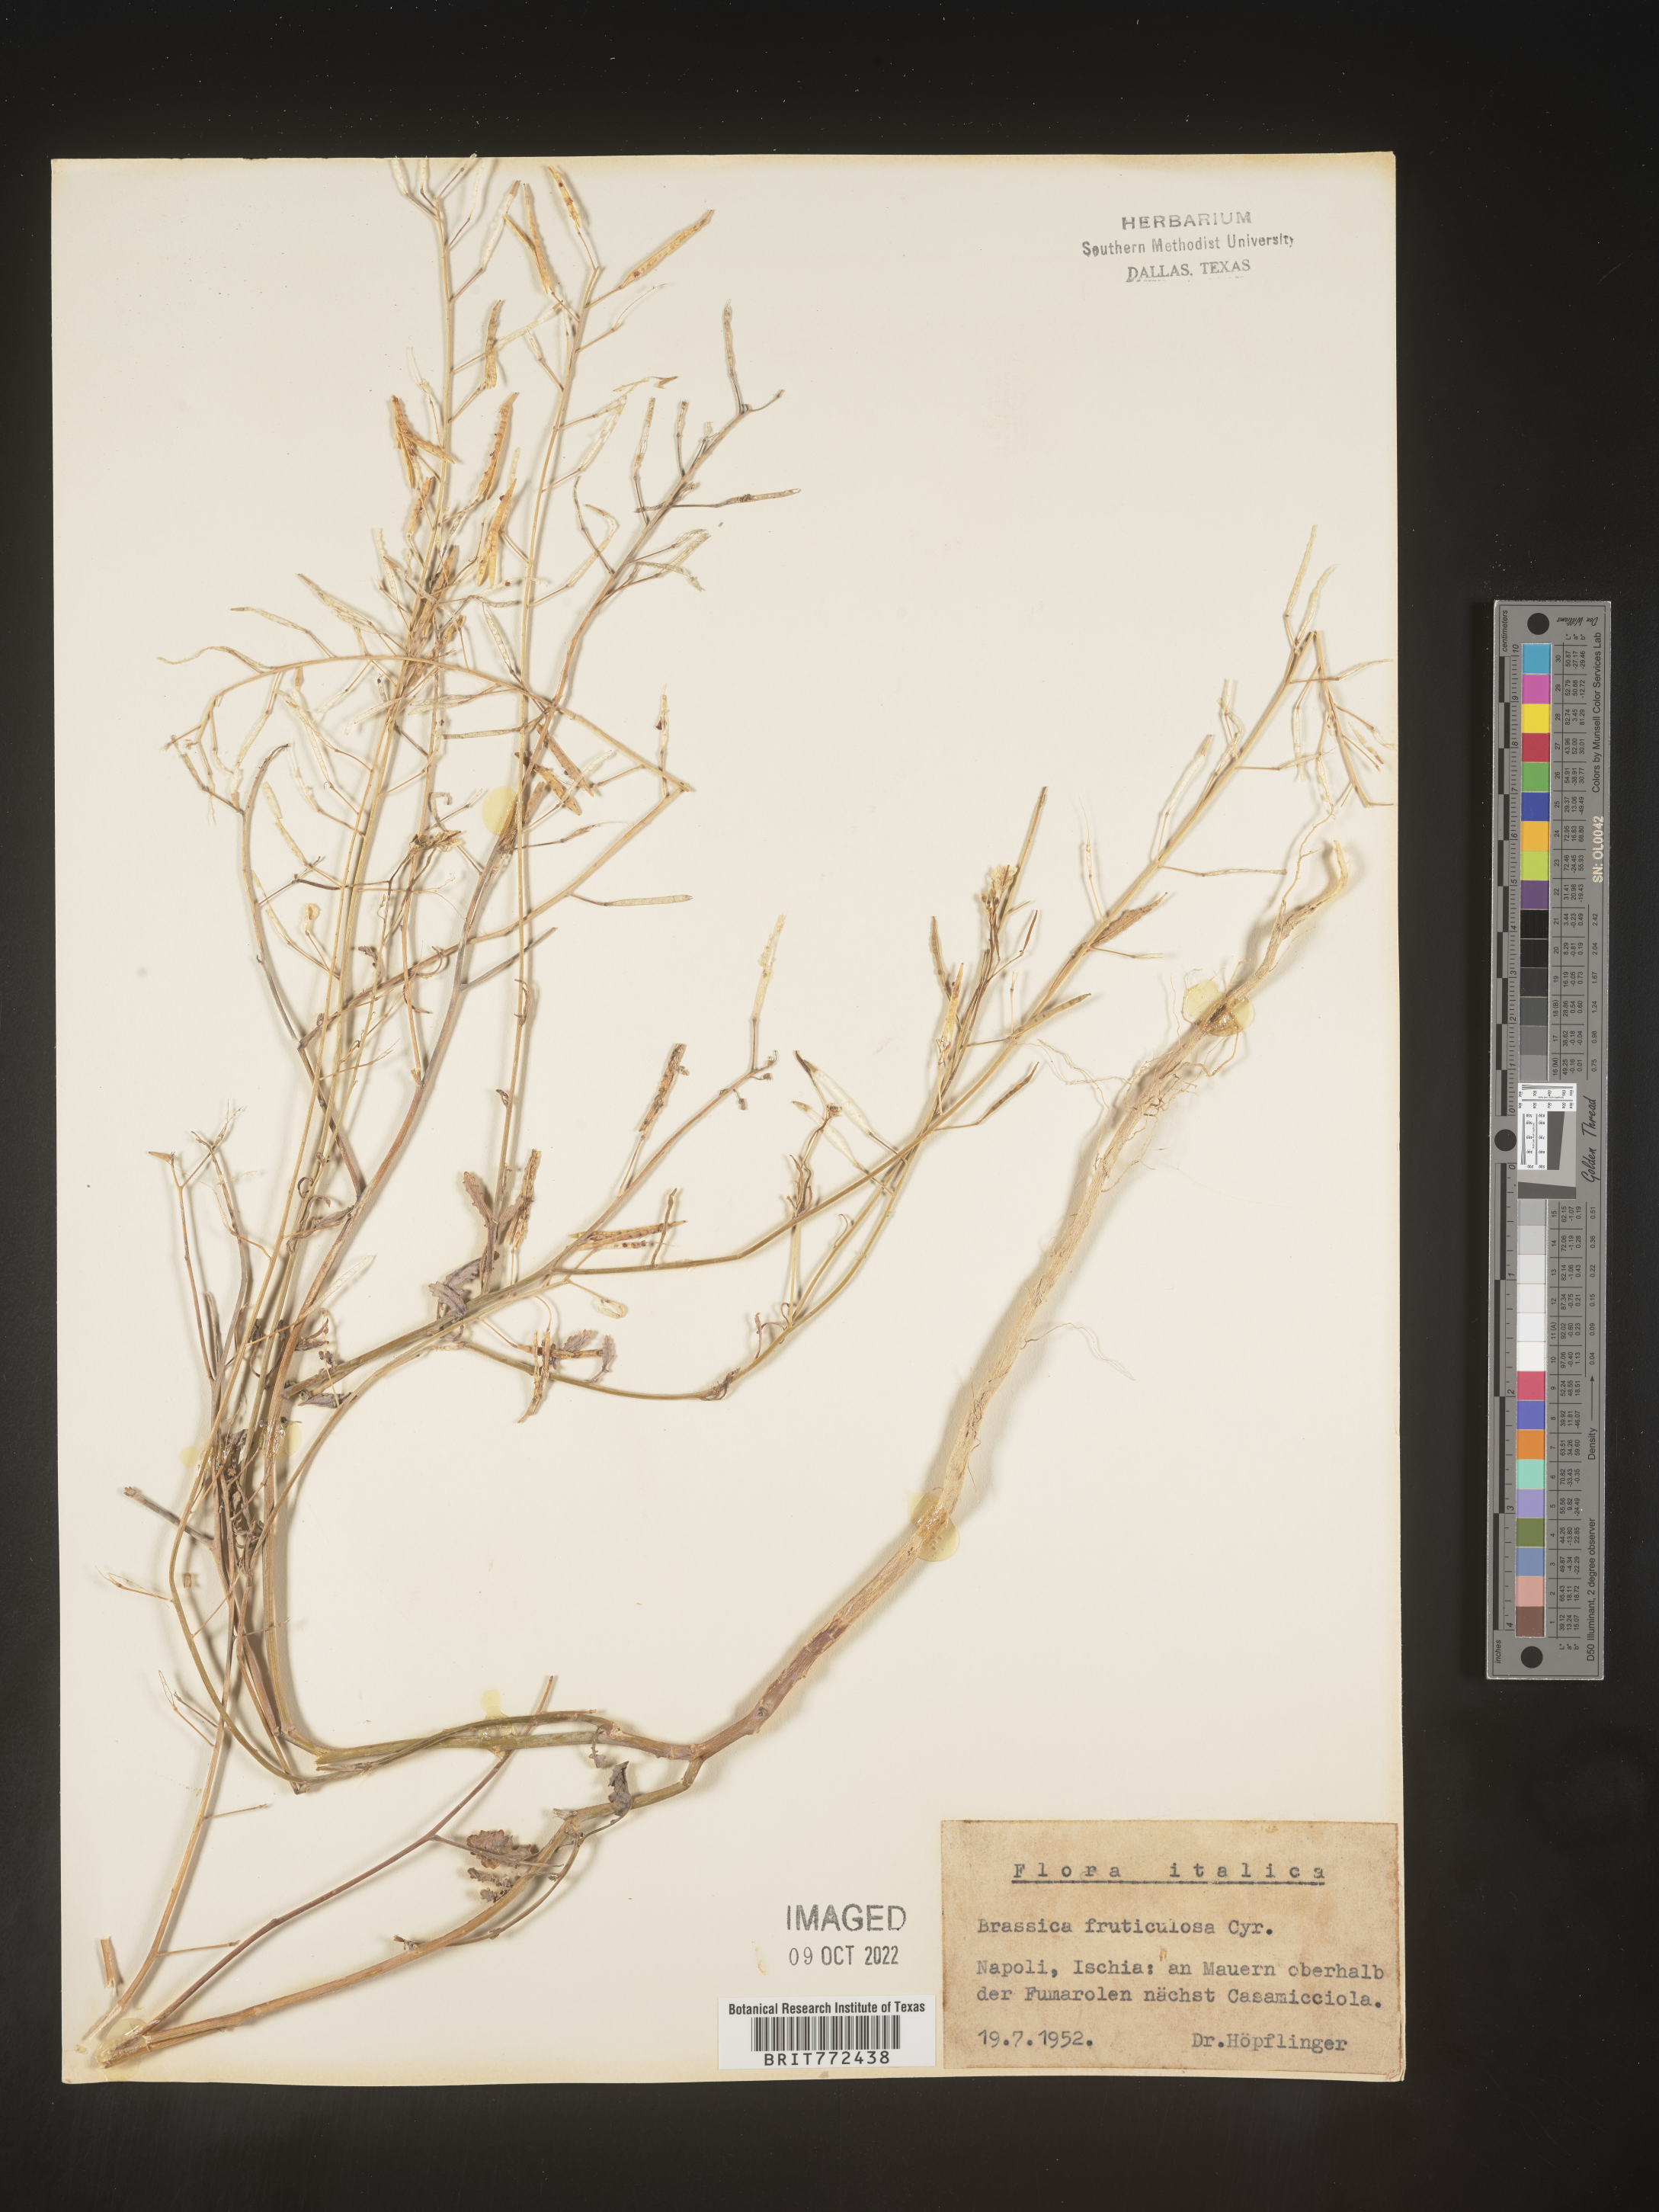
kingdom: Plantae
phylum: Tracheophyta
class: Magnoliopsida
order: Brassicales
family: Brassicaceae
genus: Brassica
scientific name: Brassica
